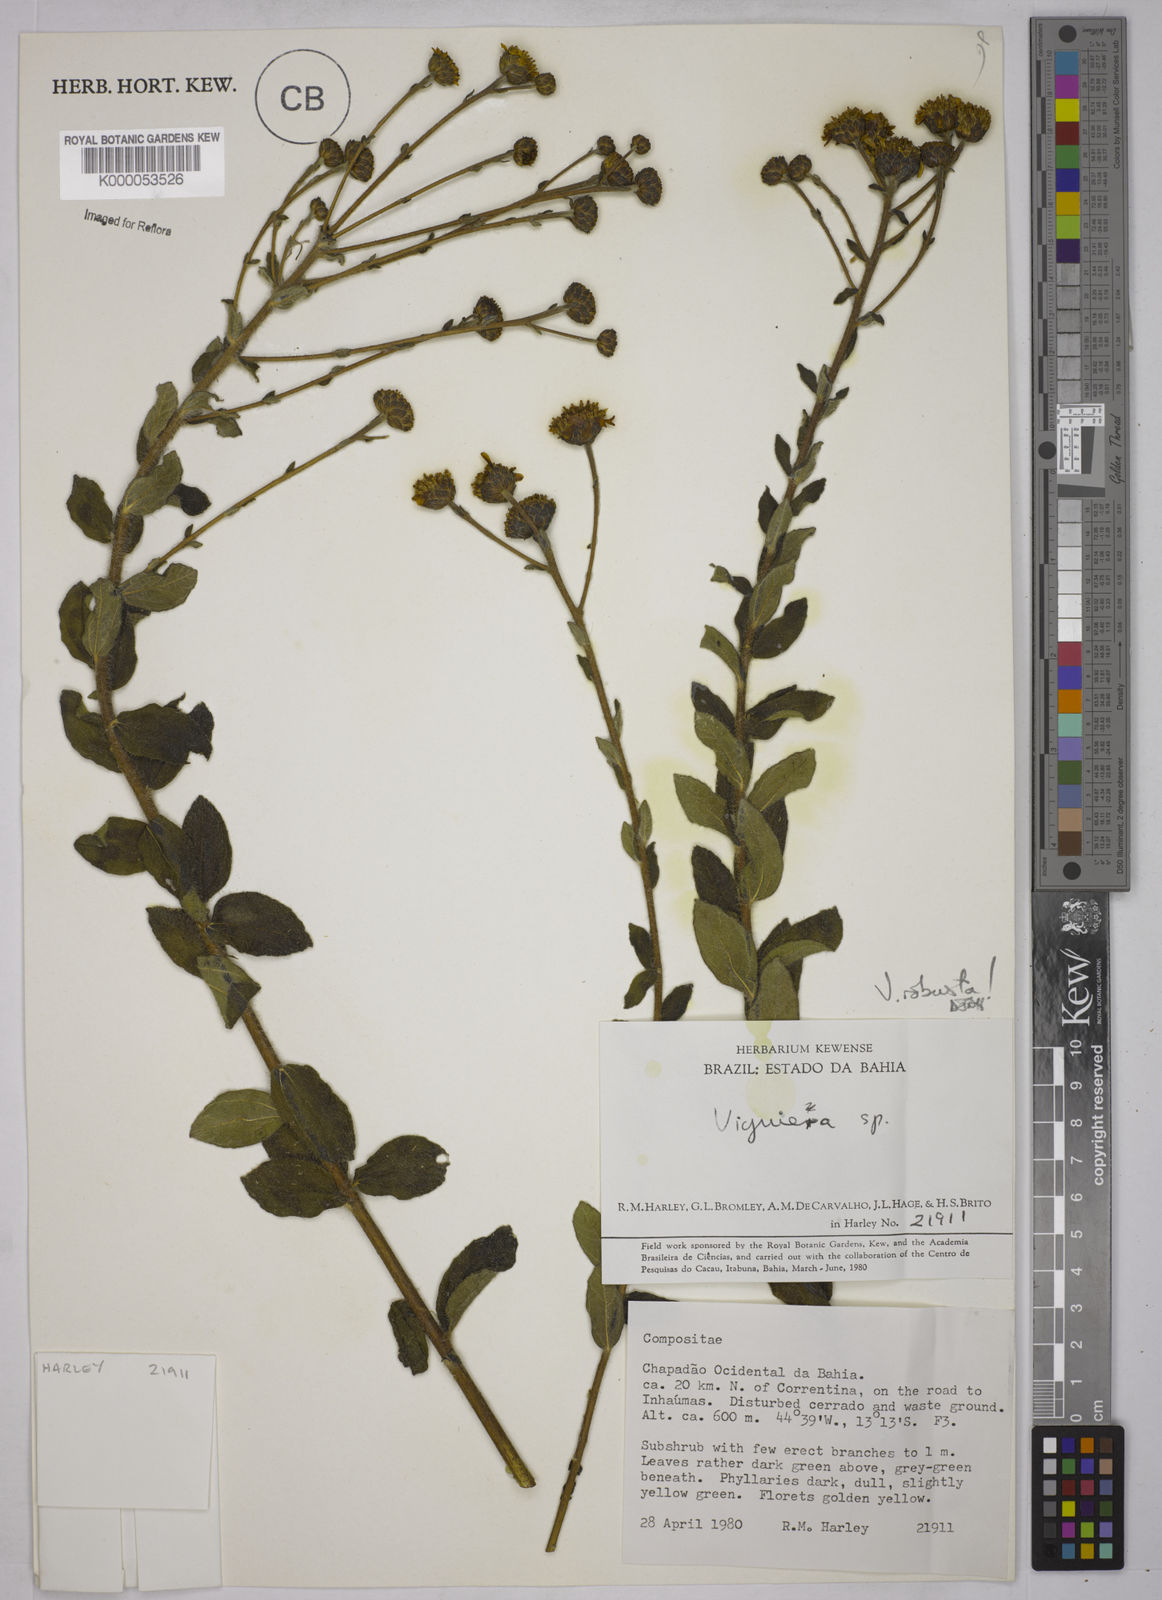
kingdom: Plantae
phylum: Tracheophyta
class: Magnoliopsida
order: Asterales
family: Asteraceae
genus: Aldama
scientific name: Aldama robusta
